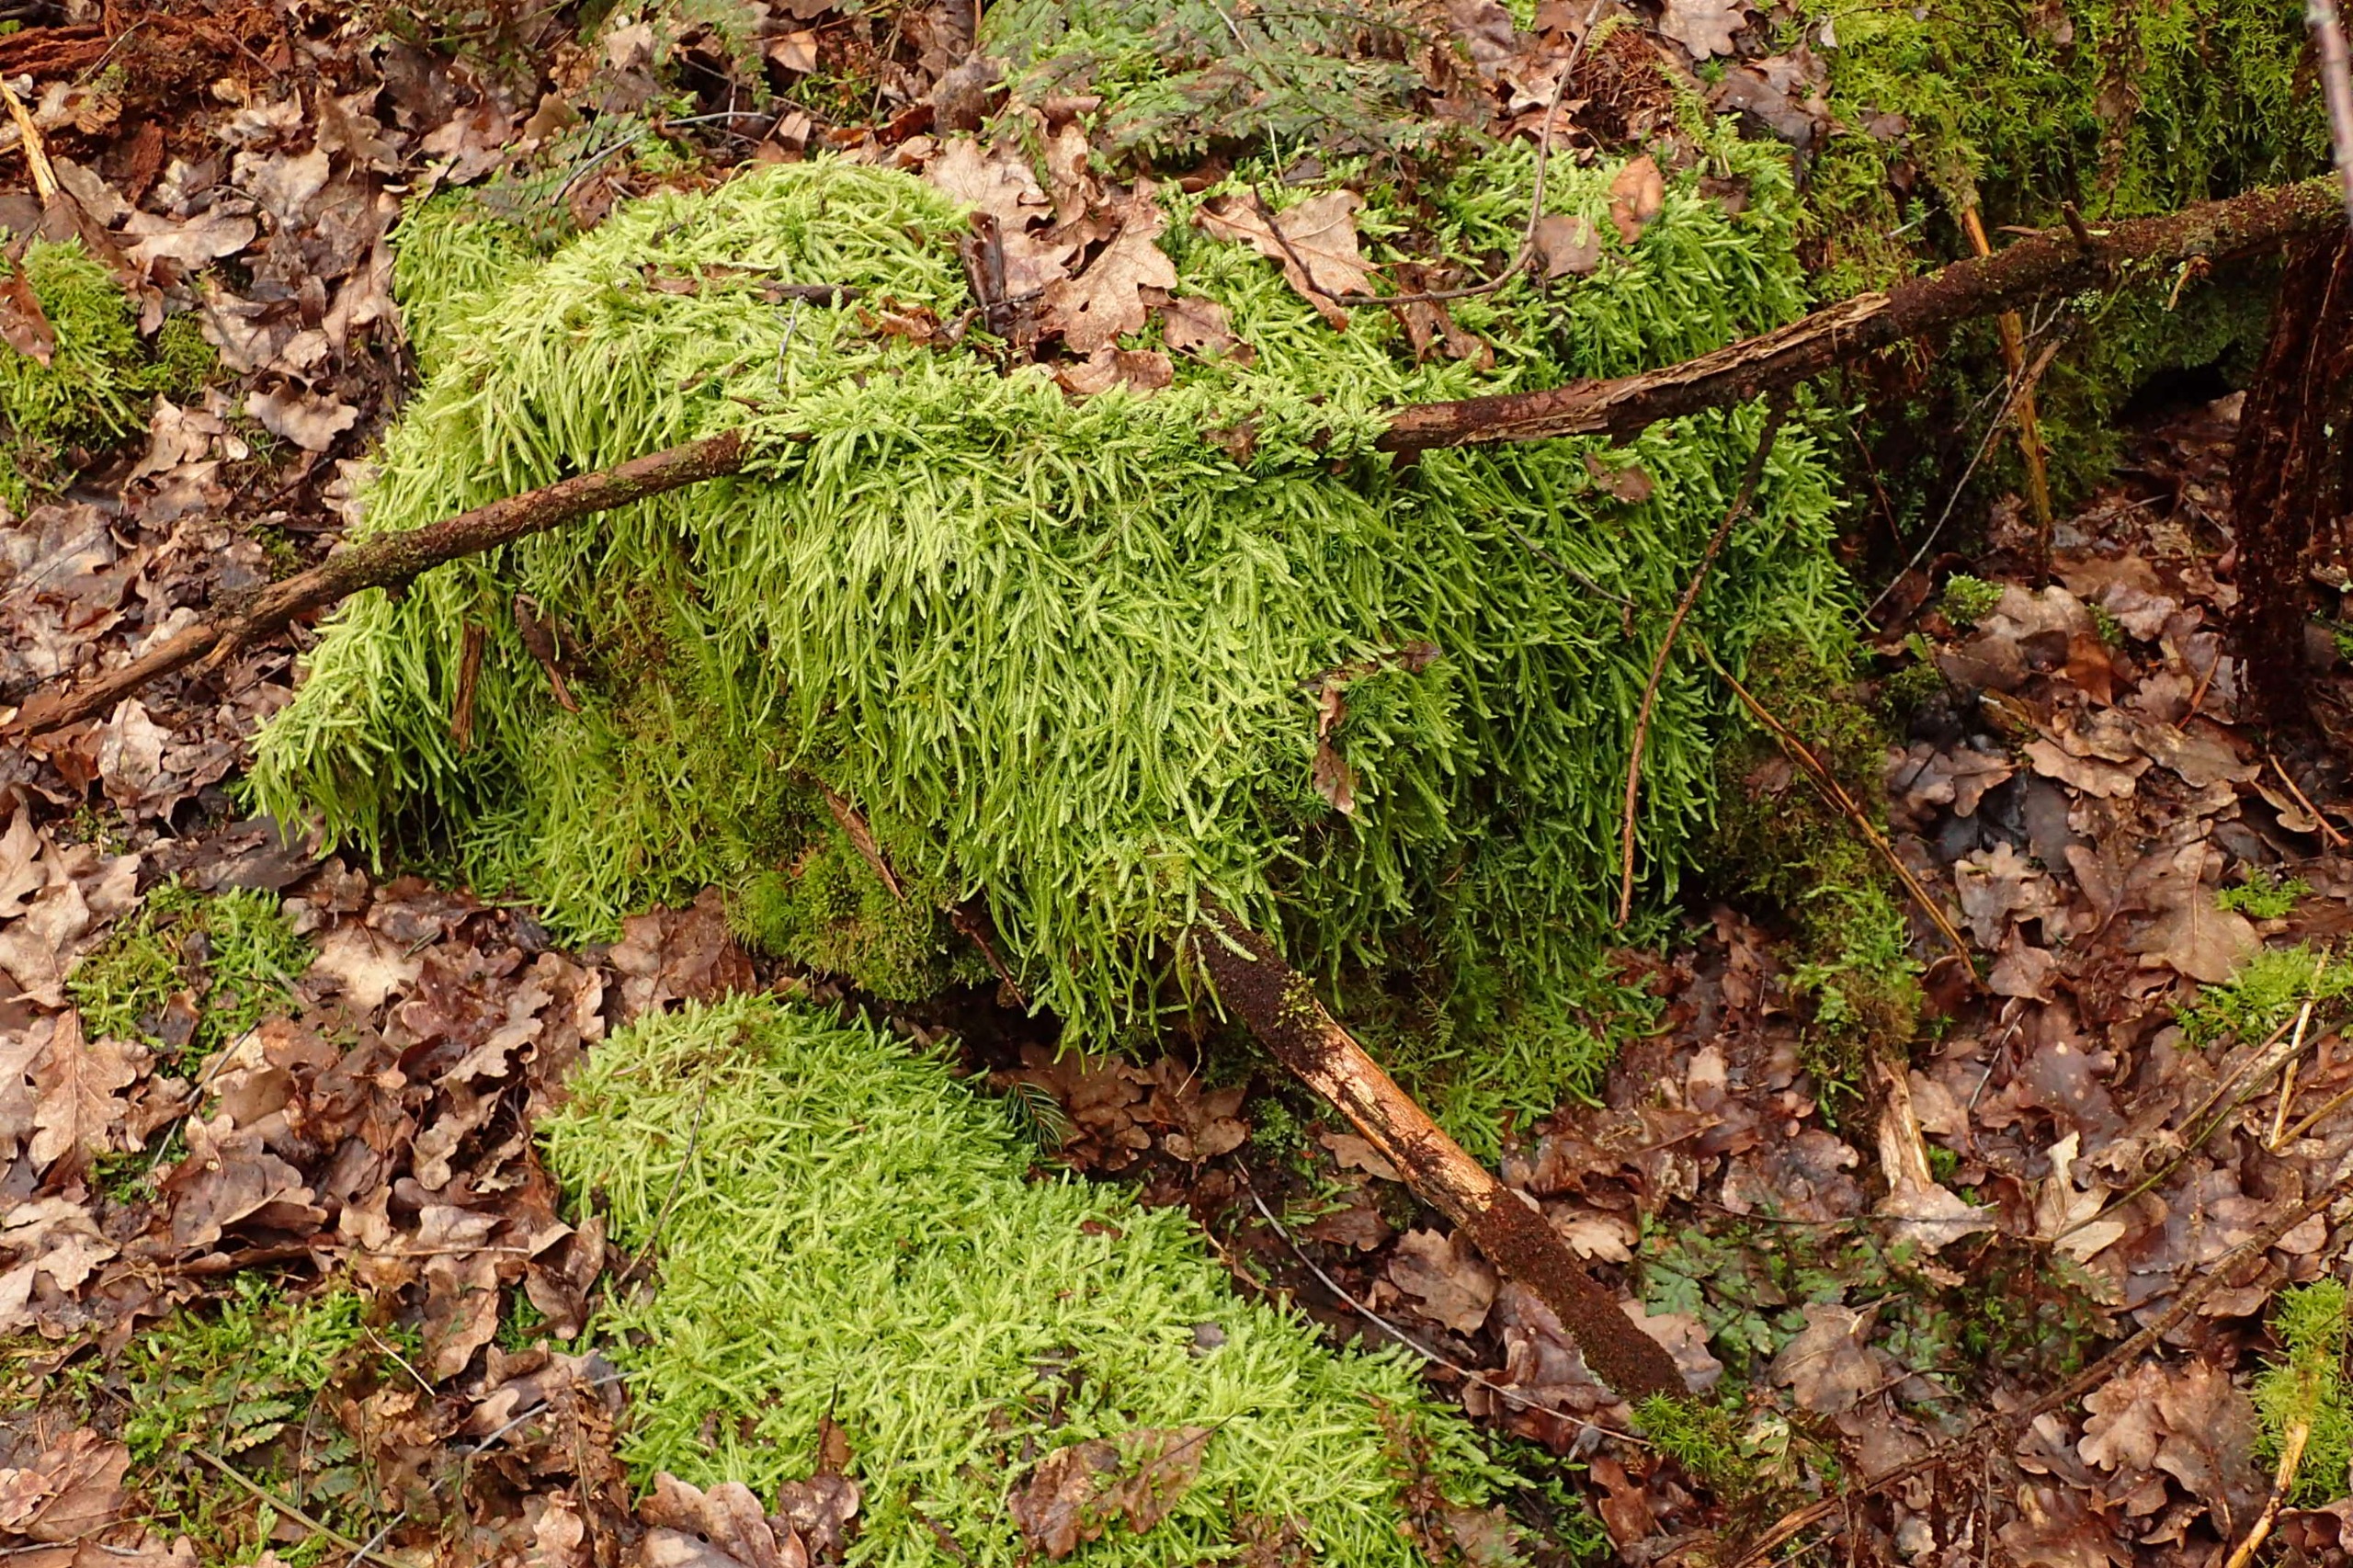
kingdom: Plantae
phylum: Bryophyta
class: Bryopsida
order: Hypnales
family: Plagiotheciaceae
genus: Plagiothecium
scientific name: Plagiothecium undulatum
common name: Bølget tæppemos
